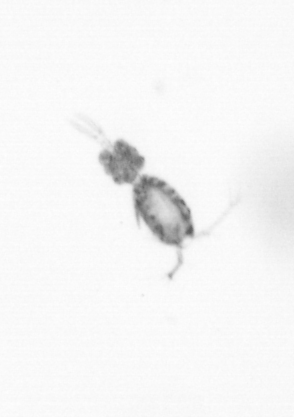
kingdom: Animalia
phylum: Arthropoda
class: Copepoda
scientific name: Copepoda
